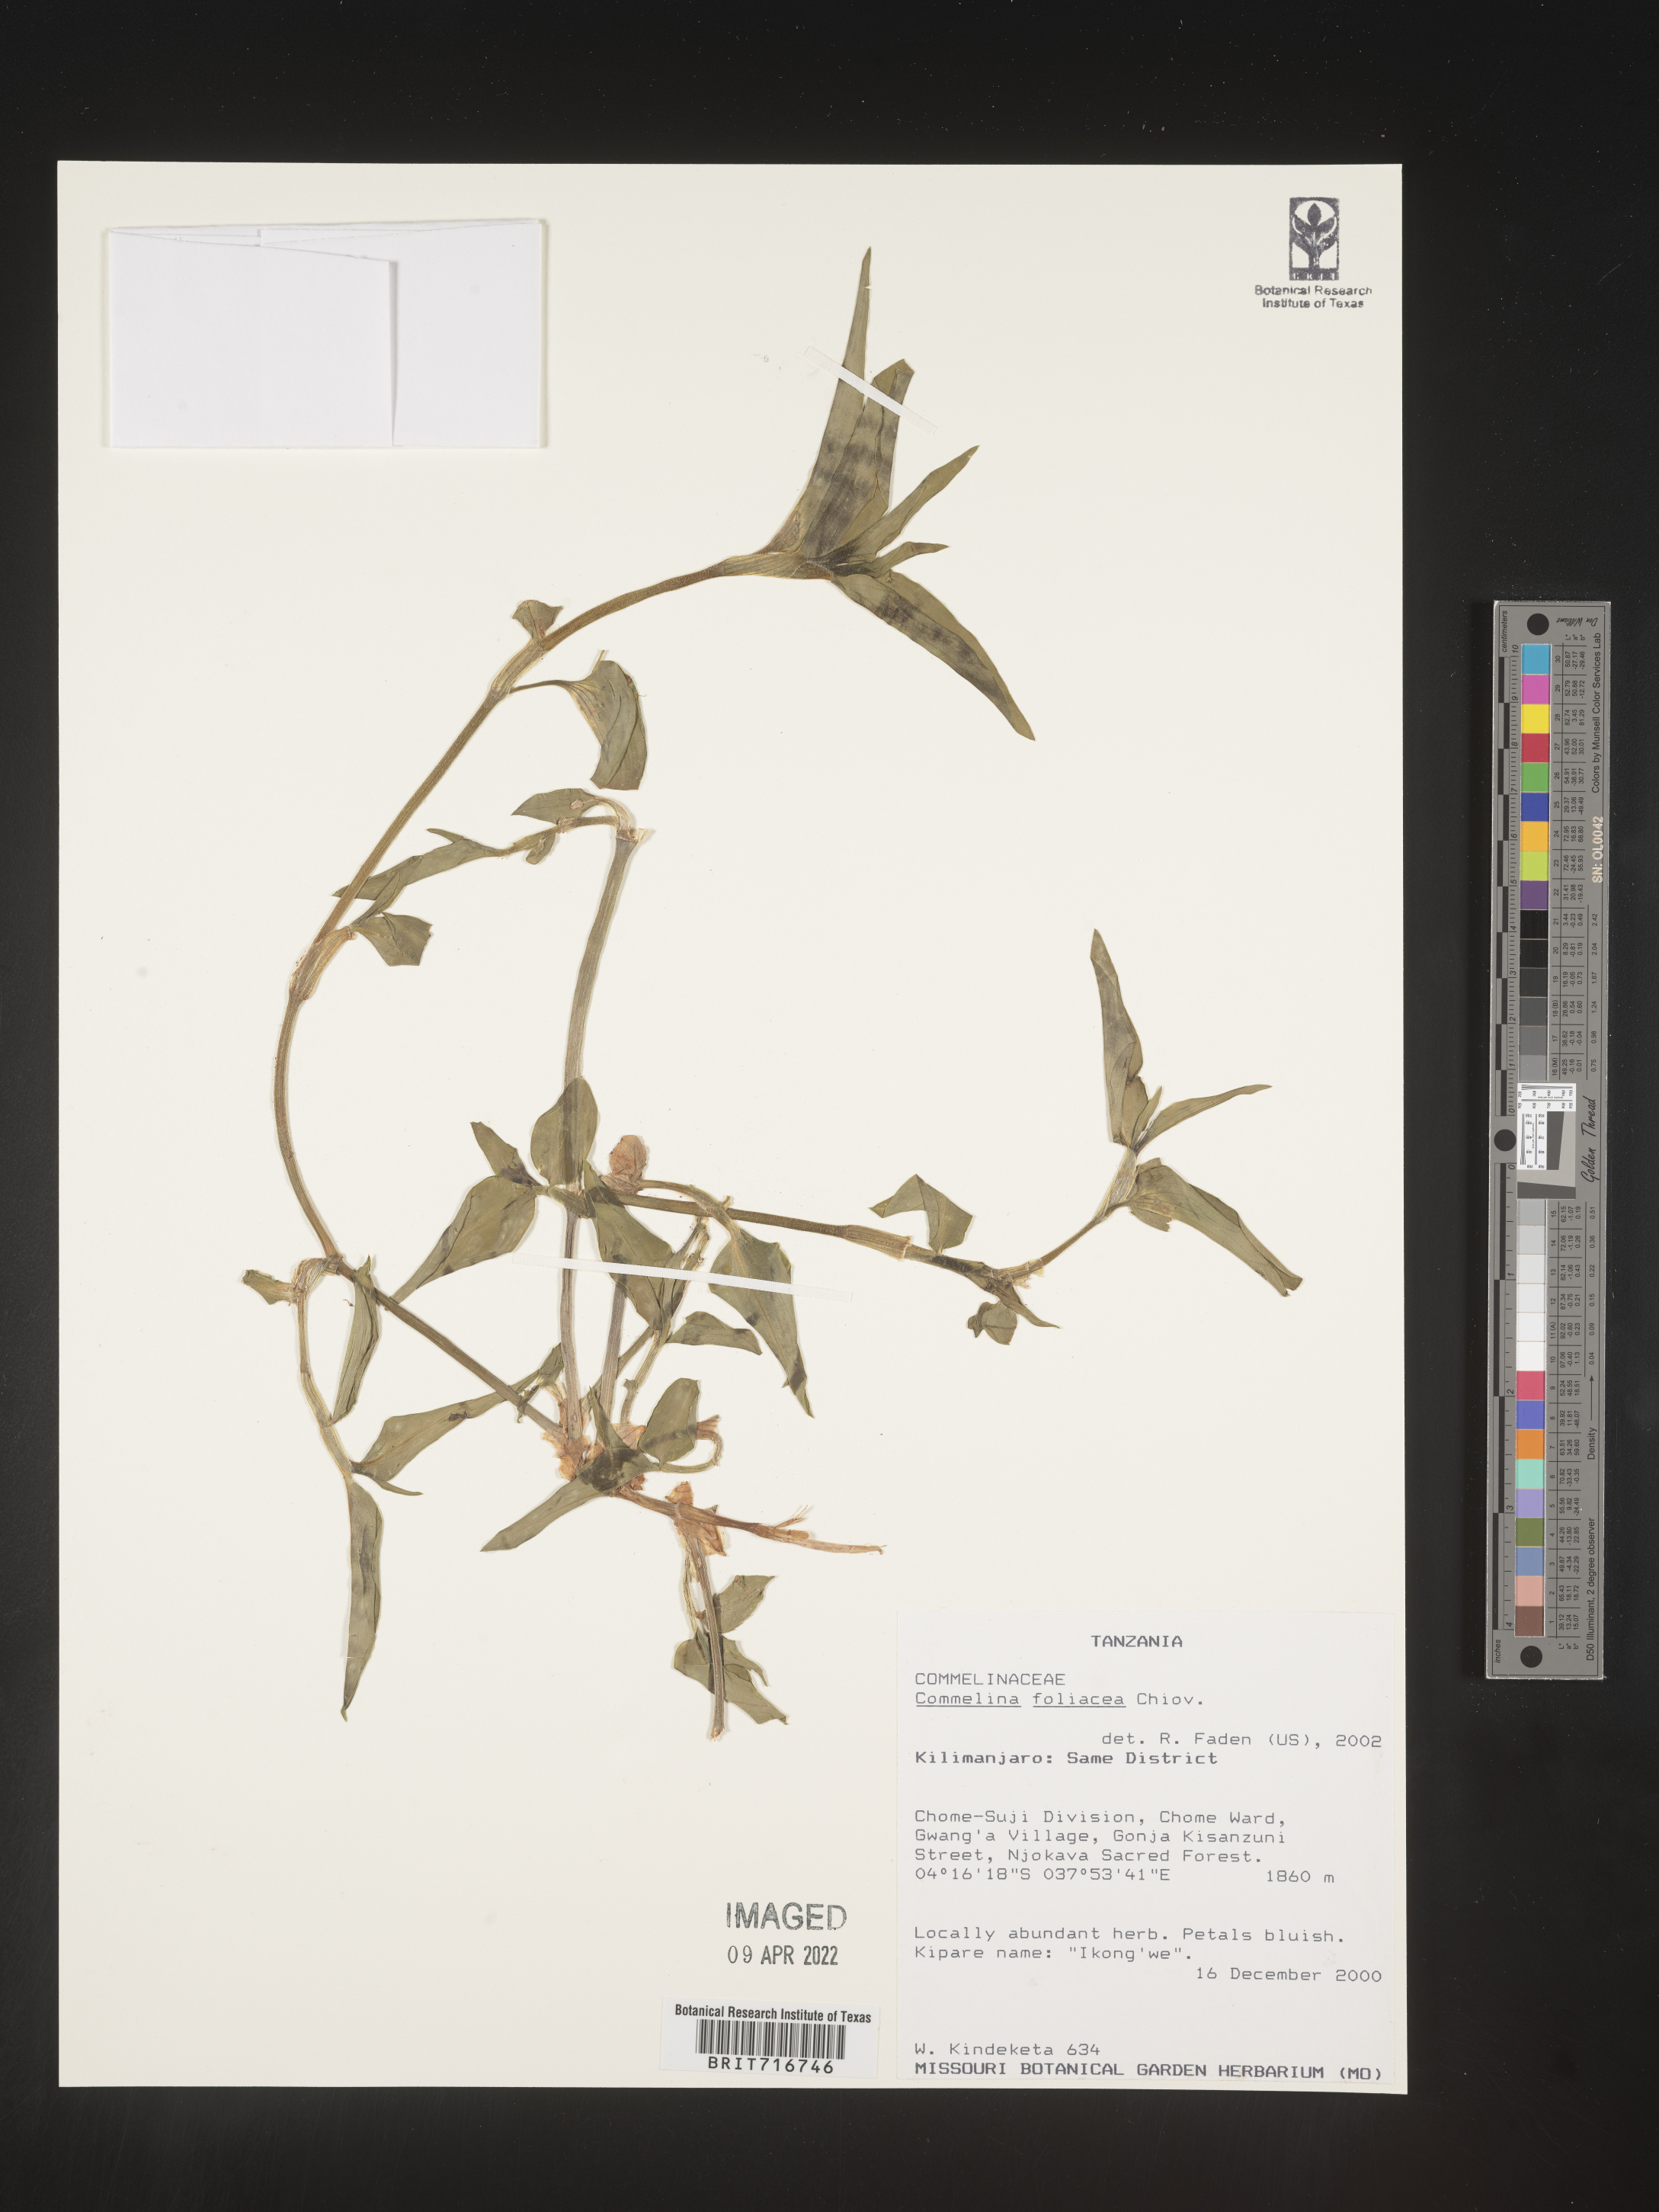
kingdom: Plantae
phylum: Tracheophyta
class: Liliopsida
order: Commelinales
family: Commelinaceae
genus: Commelina
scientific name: Commelina
